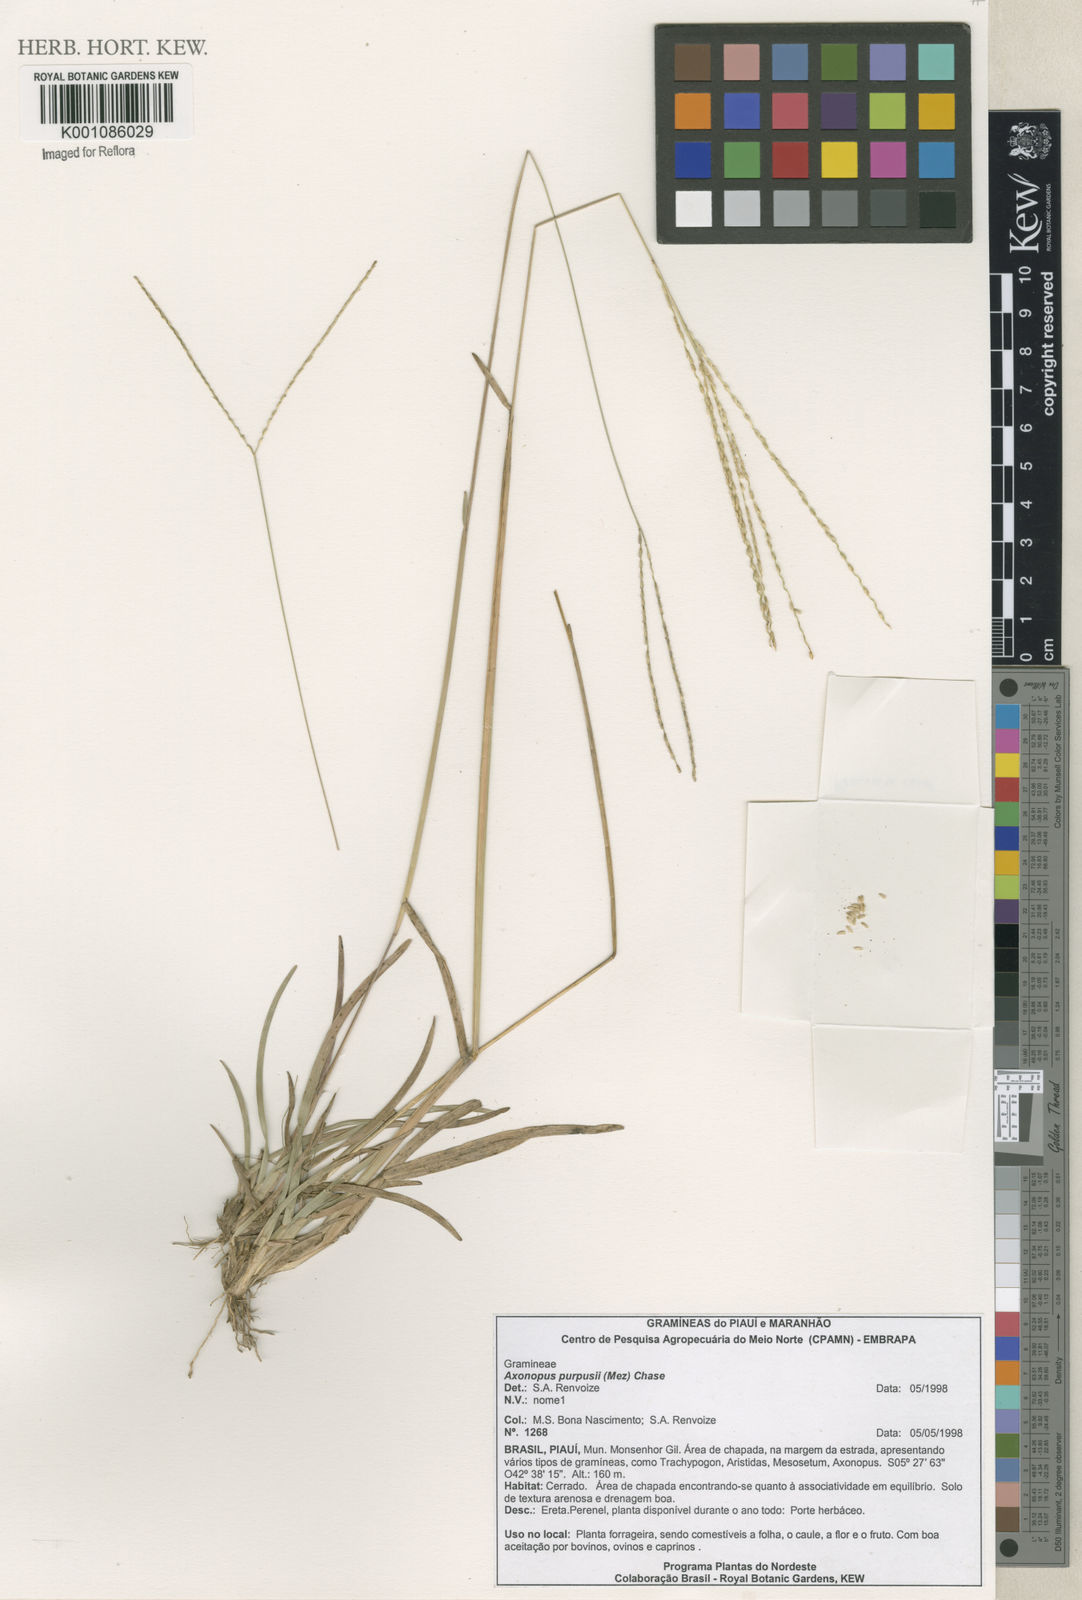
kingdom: Plantae
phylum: Tracheophyta
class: Liliopsida
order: Poales
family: Poaceae
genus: Axonopus
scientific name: Axonopus purpusii
